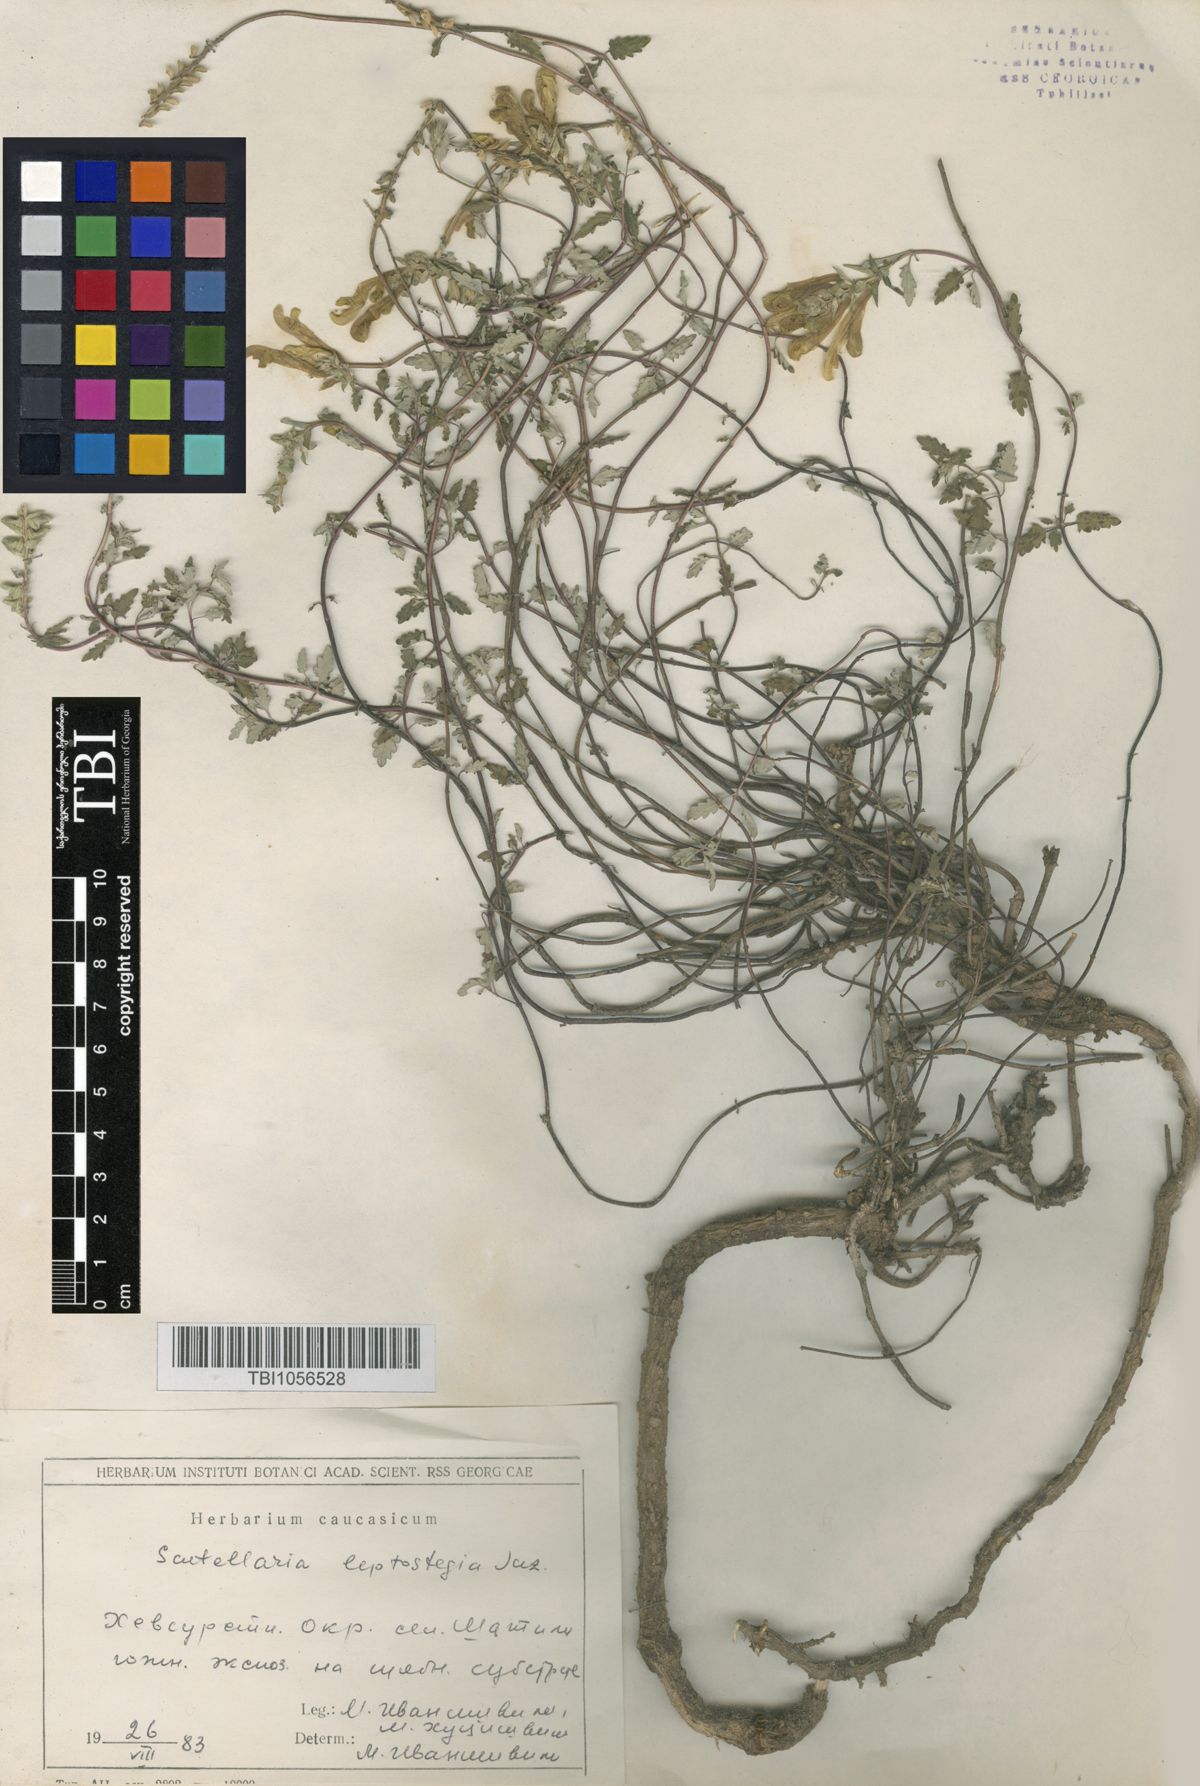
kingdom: Plantae
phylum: Tracheophyta
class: Magnoliopsida
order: Lamiales
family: Lamiaceae
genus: Scutellaria
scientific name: Scutellaria leptostegia
